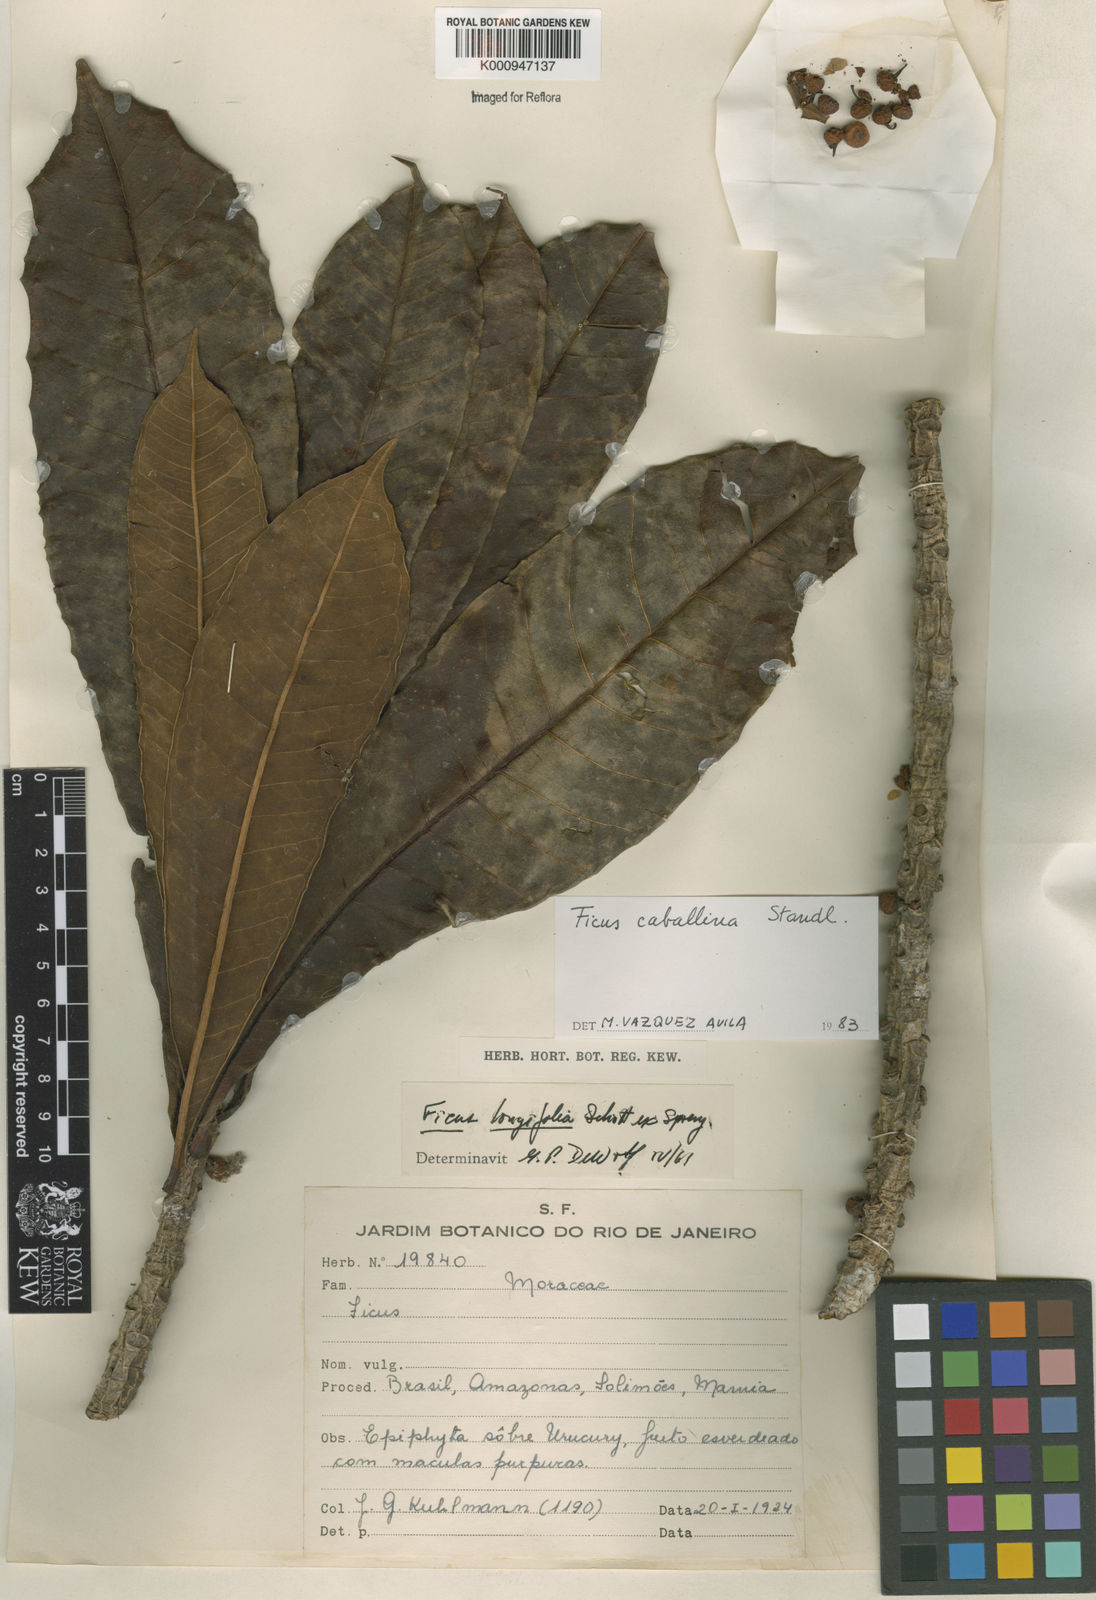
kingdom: Plantae
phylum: Tracheophyta
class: Magnoliopsida
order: Rosales
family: Moraceae
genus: Ficus
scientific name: Ficus caballina
